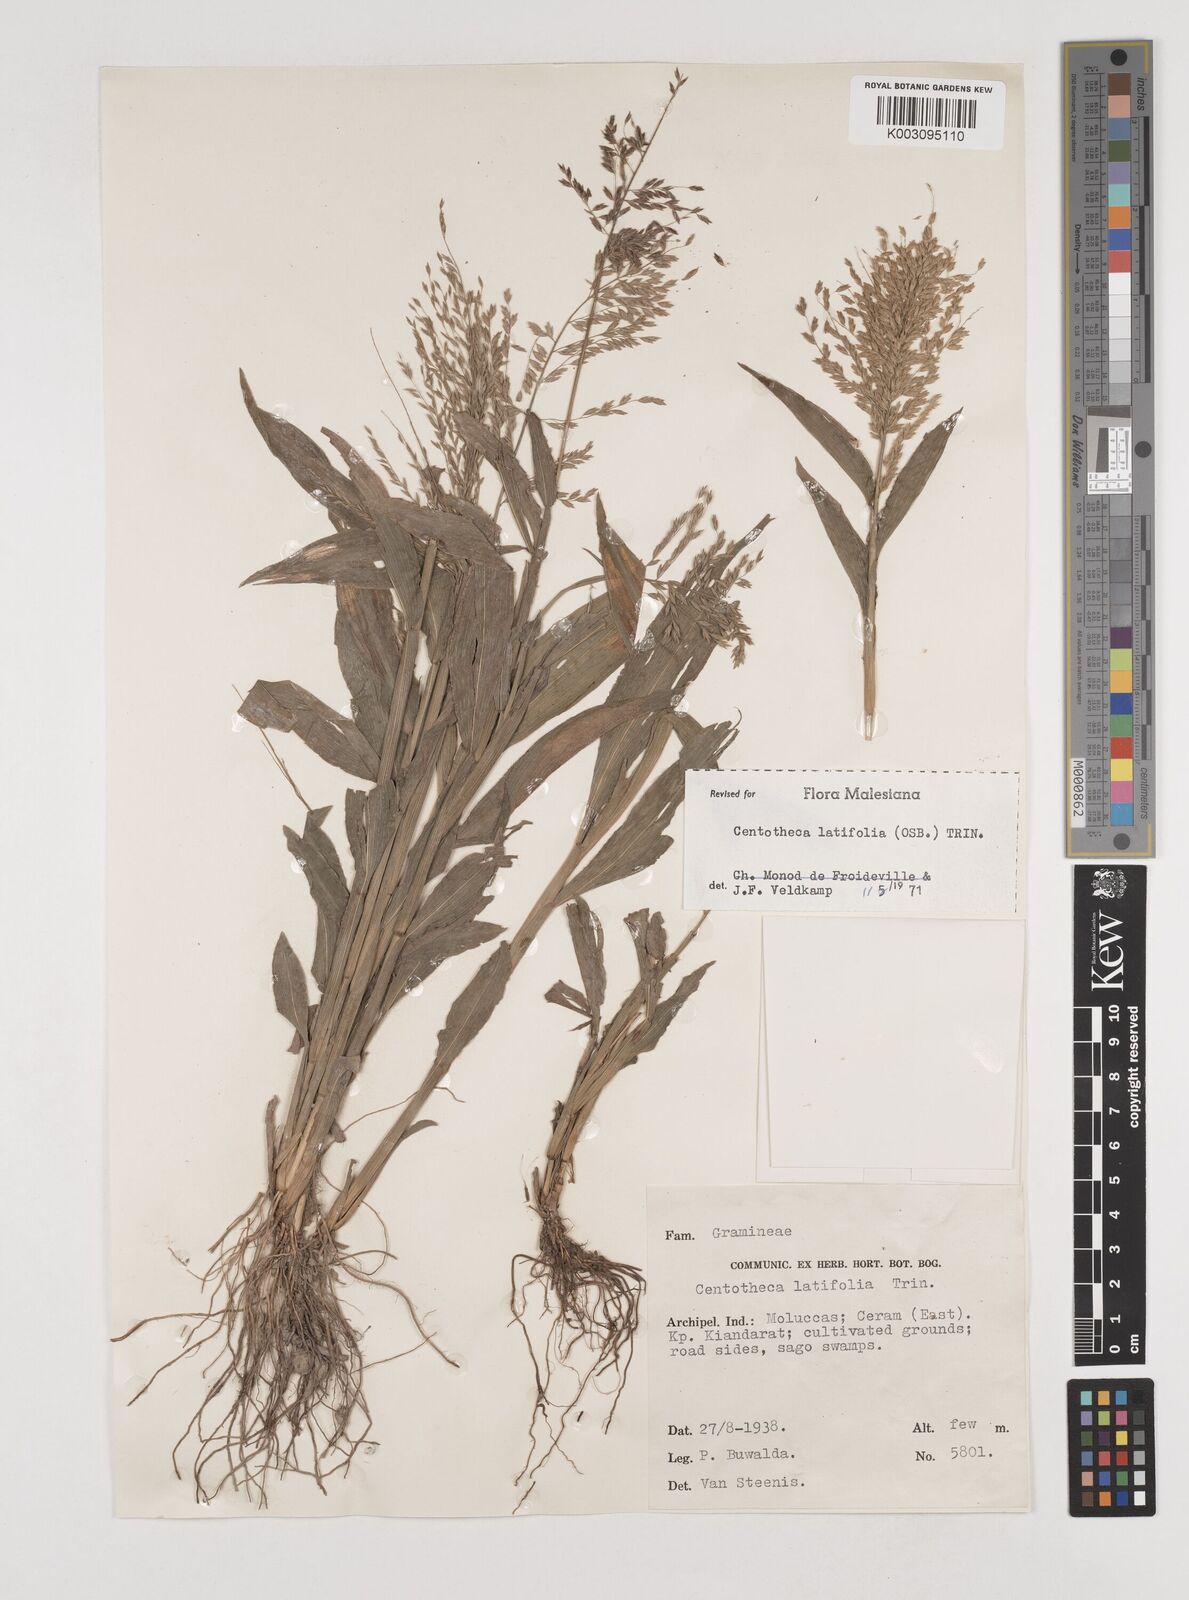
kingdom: Plantae
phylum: Tracheophyta
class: Liliopsida
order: Poales
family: Poaceae
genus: Centotheca
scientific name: Centotheca lappacea
